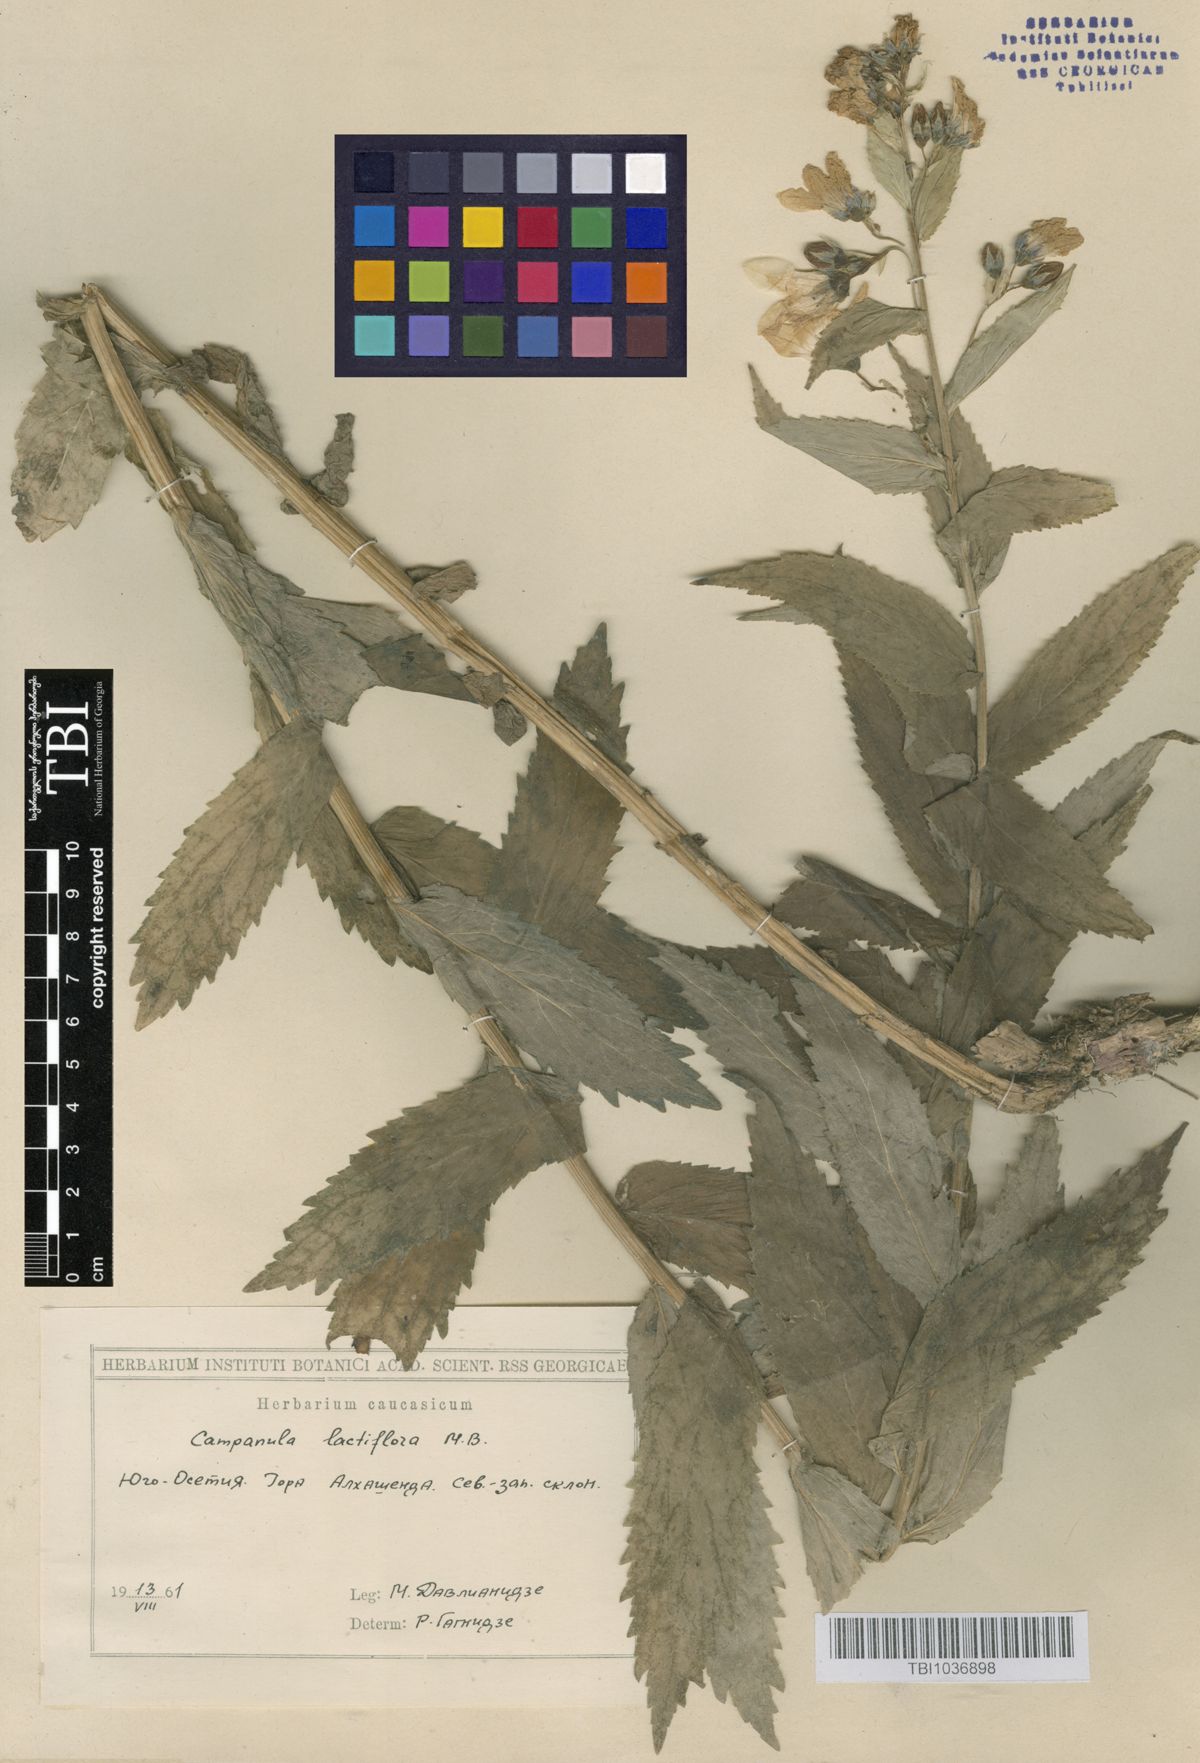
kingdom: Plantae
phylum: Tracheophyta
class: Magnoliopsida
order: Asterales
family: Campanulaceae
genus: Campanula
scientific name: Campanula lactiflora
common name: Milky bellflower
